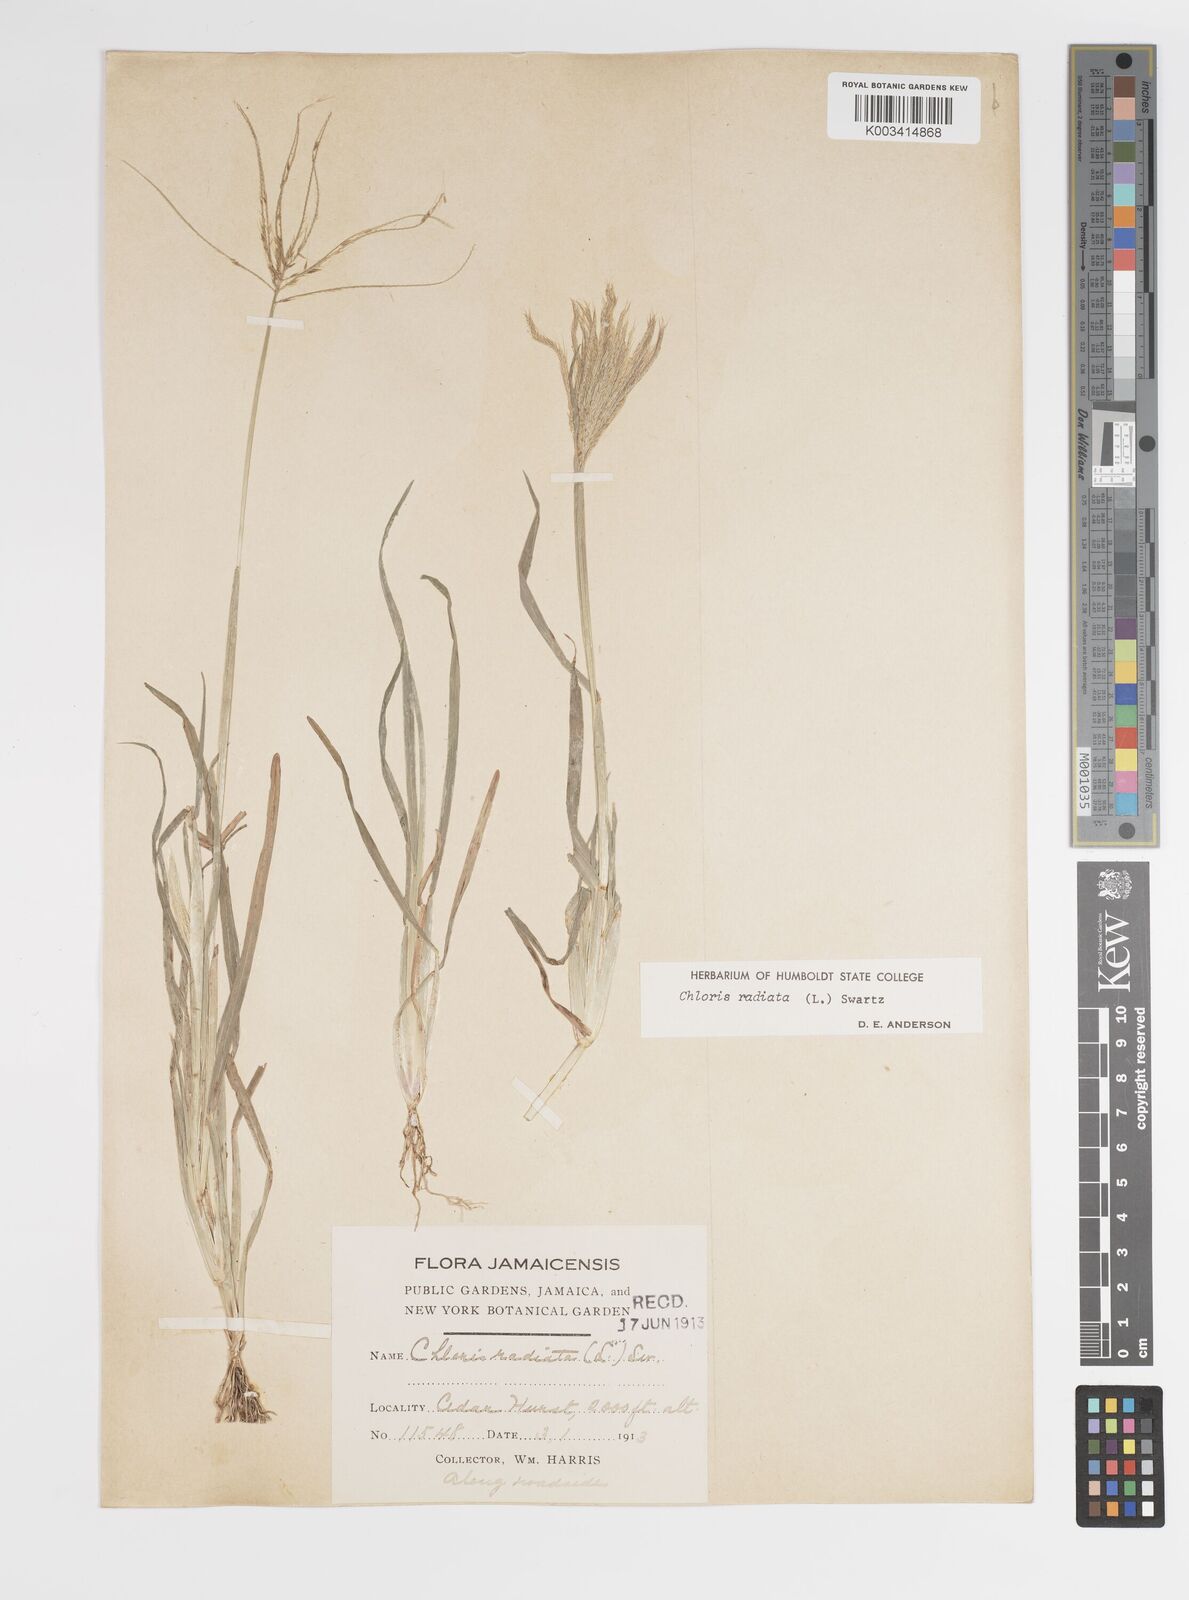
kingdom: Plantae
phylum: Tracheophyta
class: Liliopsida
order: Poales
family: Poaceae
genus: Chloris
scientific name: Chloris radiata
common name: Radiate fingergrass
